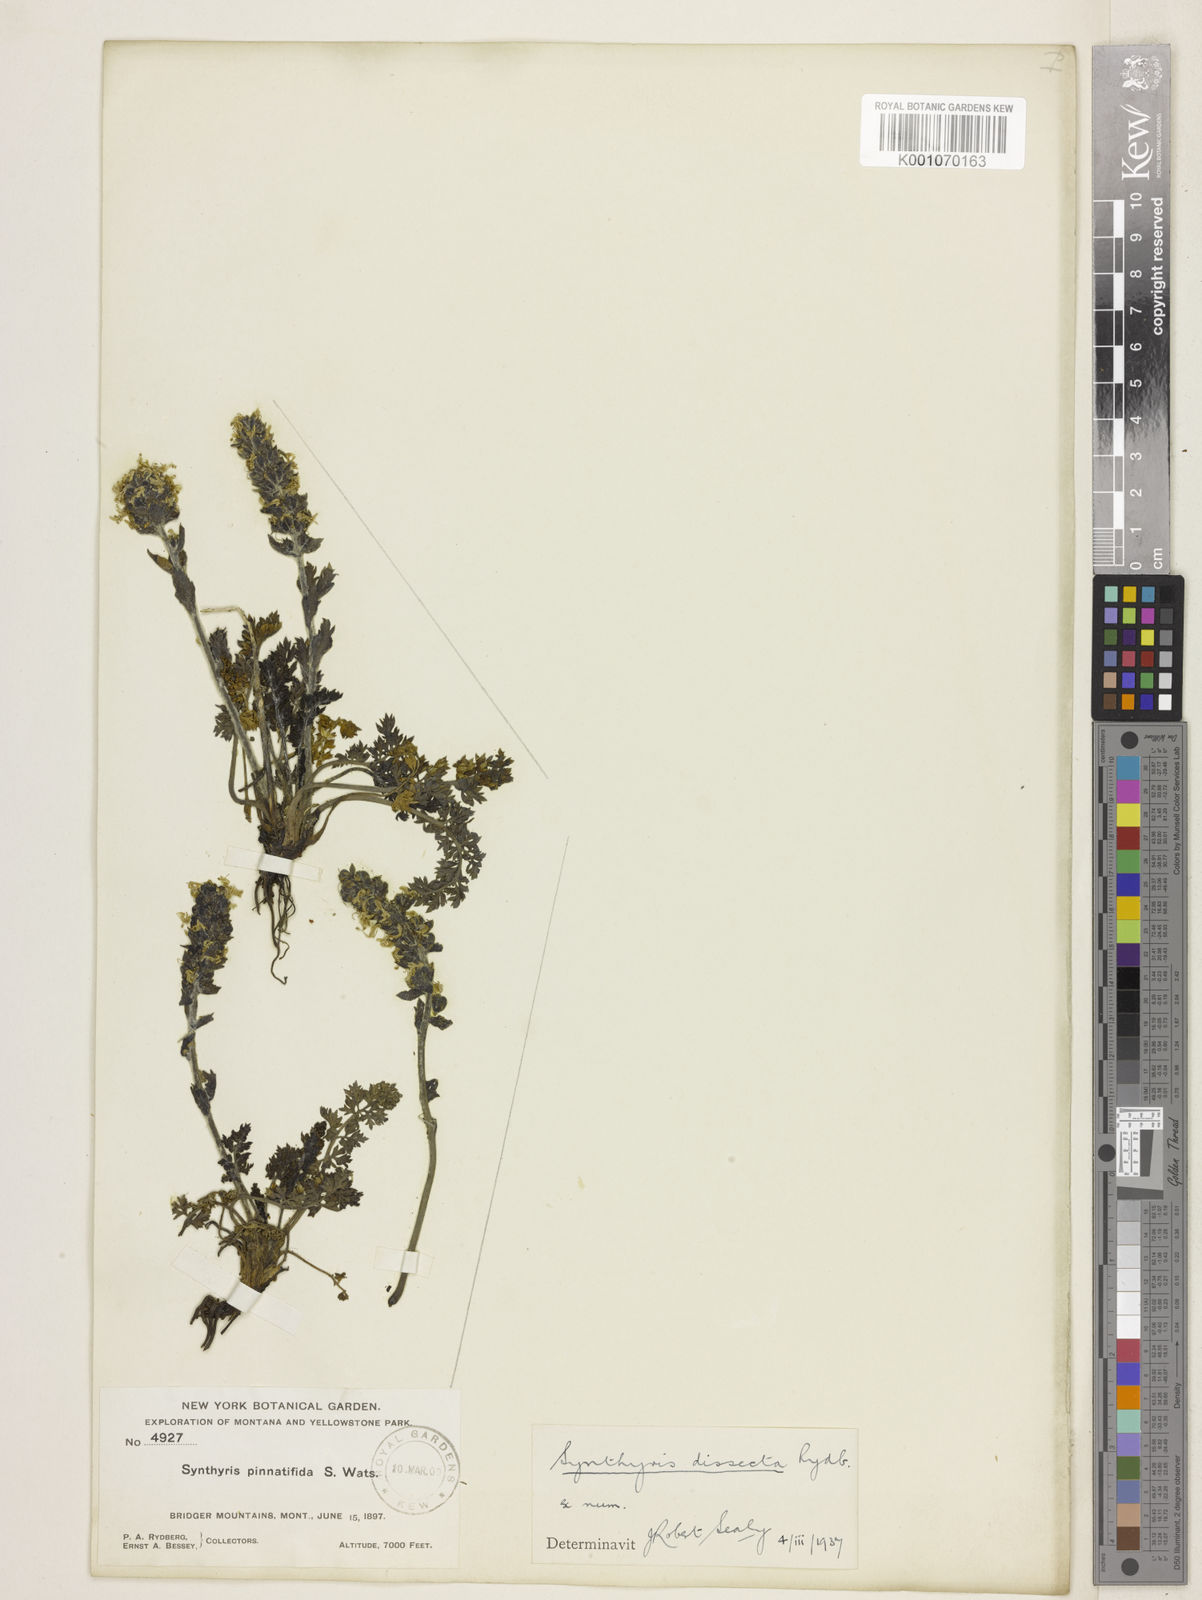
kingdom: Plantae
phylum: Tracheophyta
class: Magnoliopsida
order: Lamiales
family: Plantaginaceae
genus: Synthyris
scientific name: Synthyris dissecta
